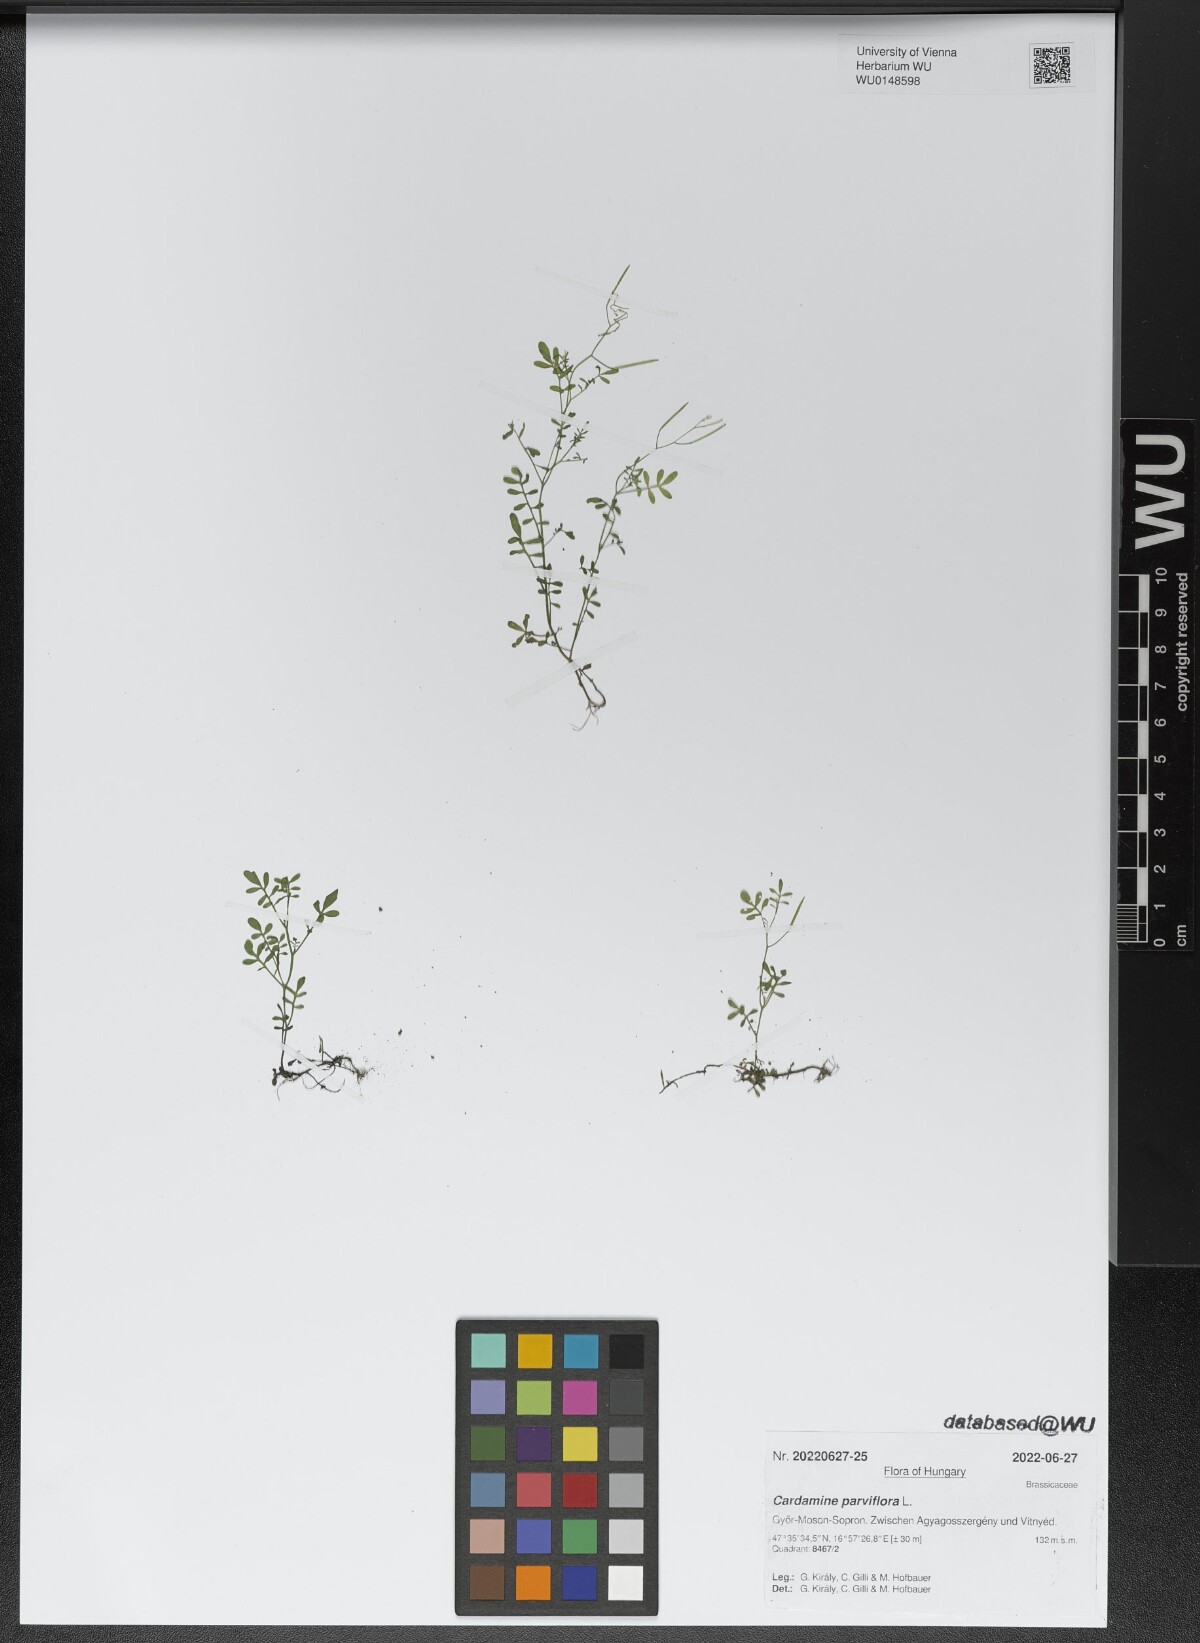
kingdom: Plantae
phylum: Tracheophyta
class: Magnoliopsida
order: Brassicales
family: Brassicaceae
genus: Cardamine
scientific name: Cardamine parviflora
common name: Sand bittercress
